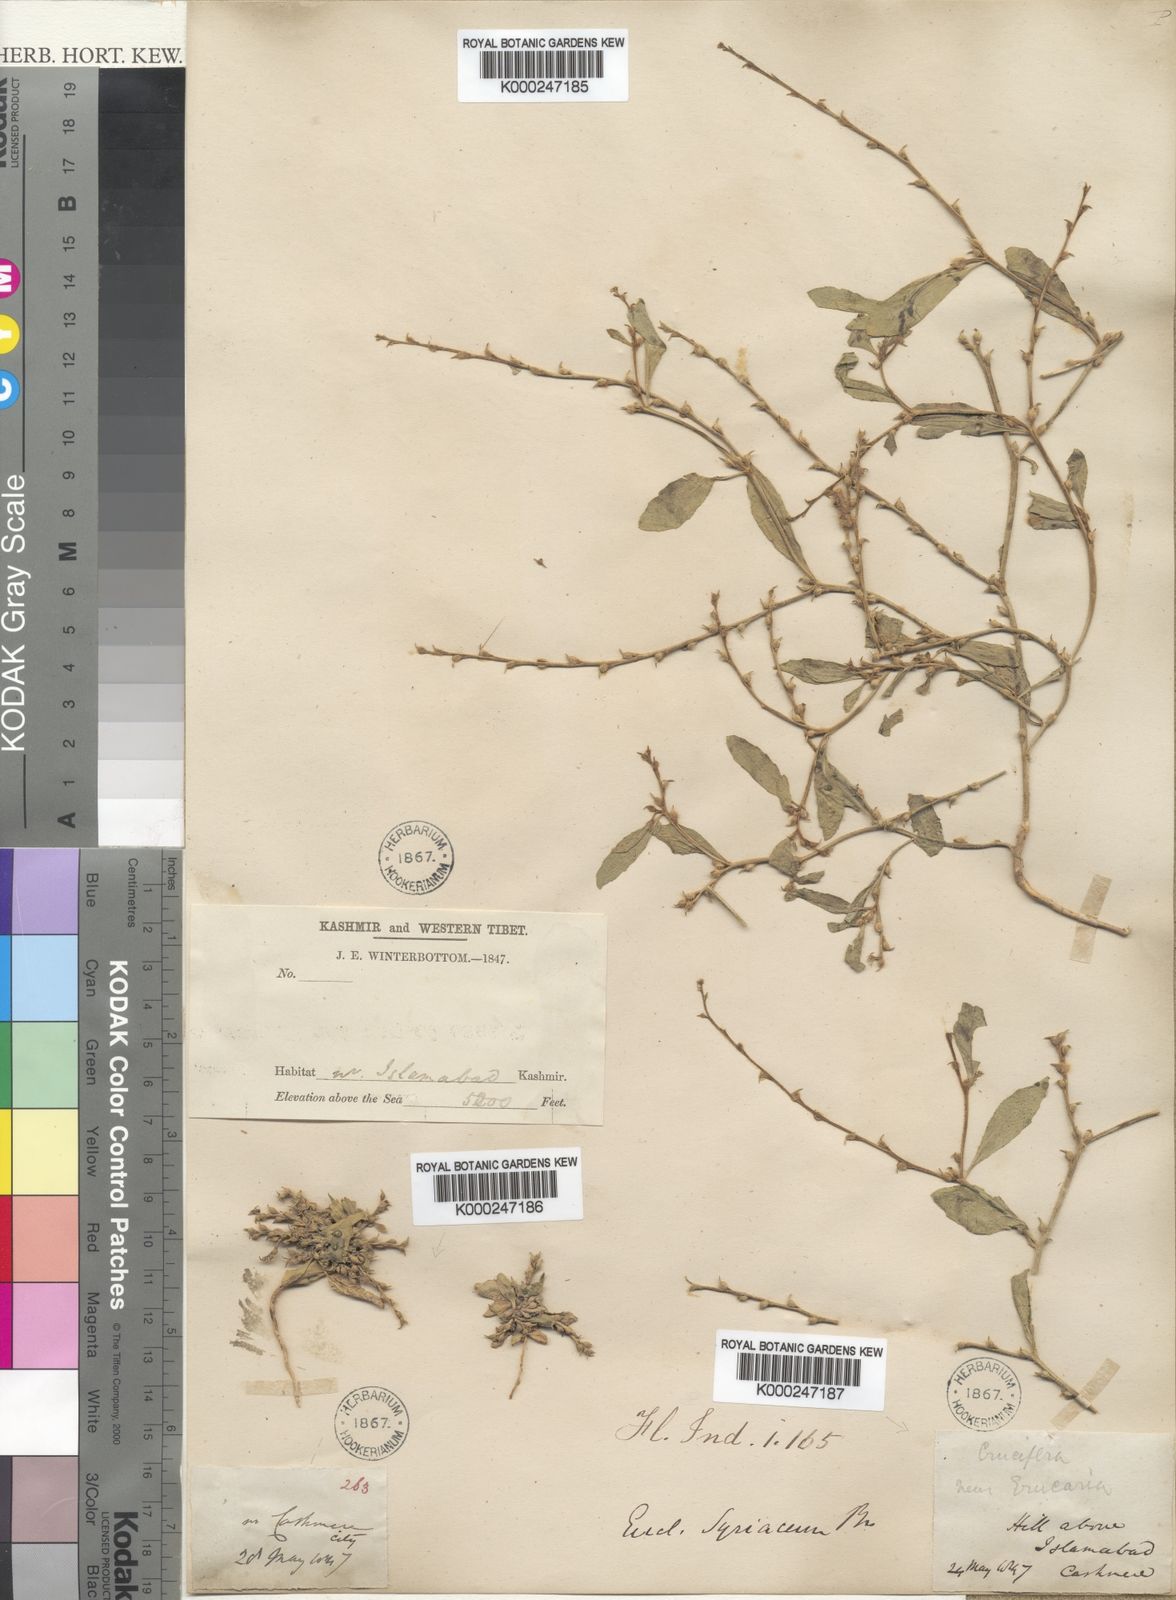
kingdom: Plantae
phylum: Tracheophyta
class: Magnoliopsida
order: Brassicales
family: Brassicaceae
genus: Euclidium
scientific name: Euclidium syriacum
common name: Syrian mustard
